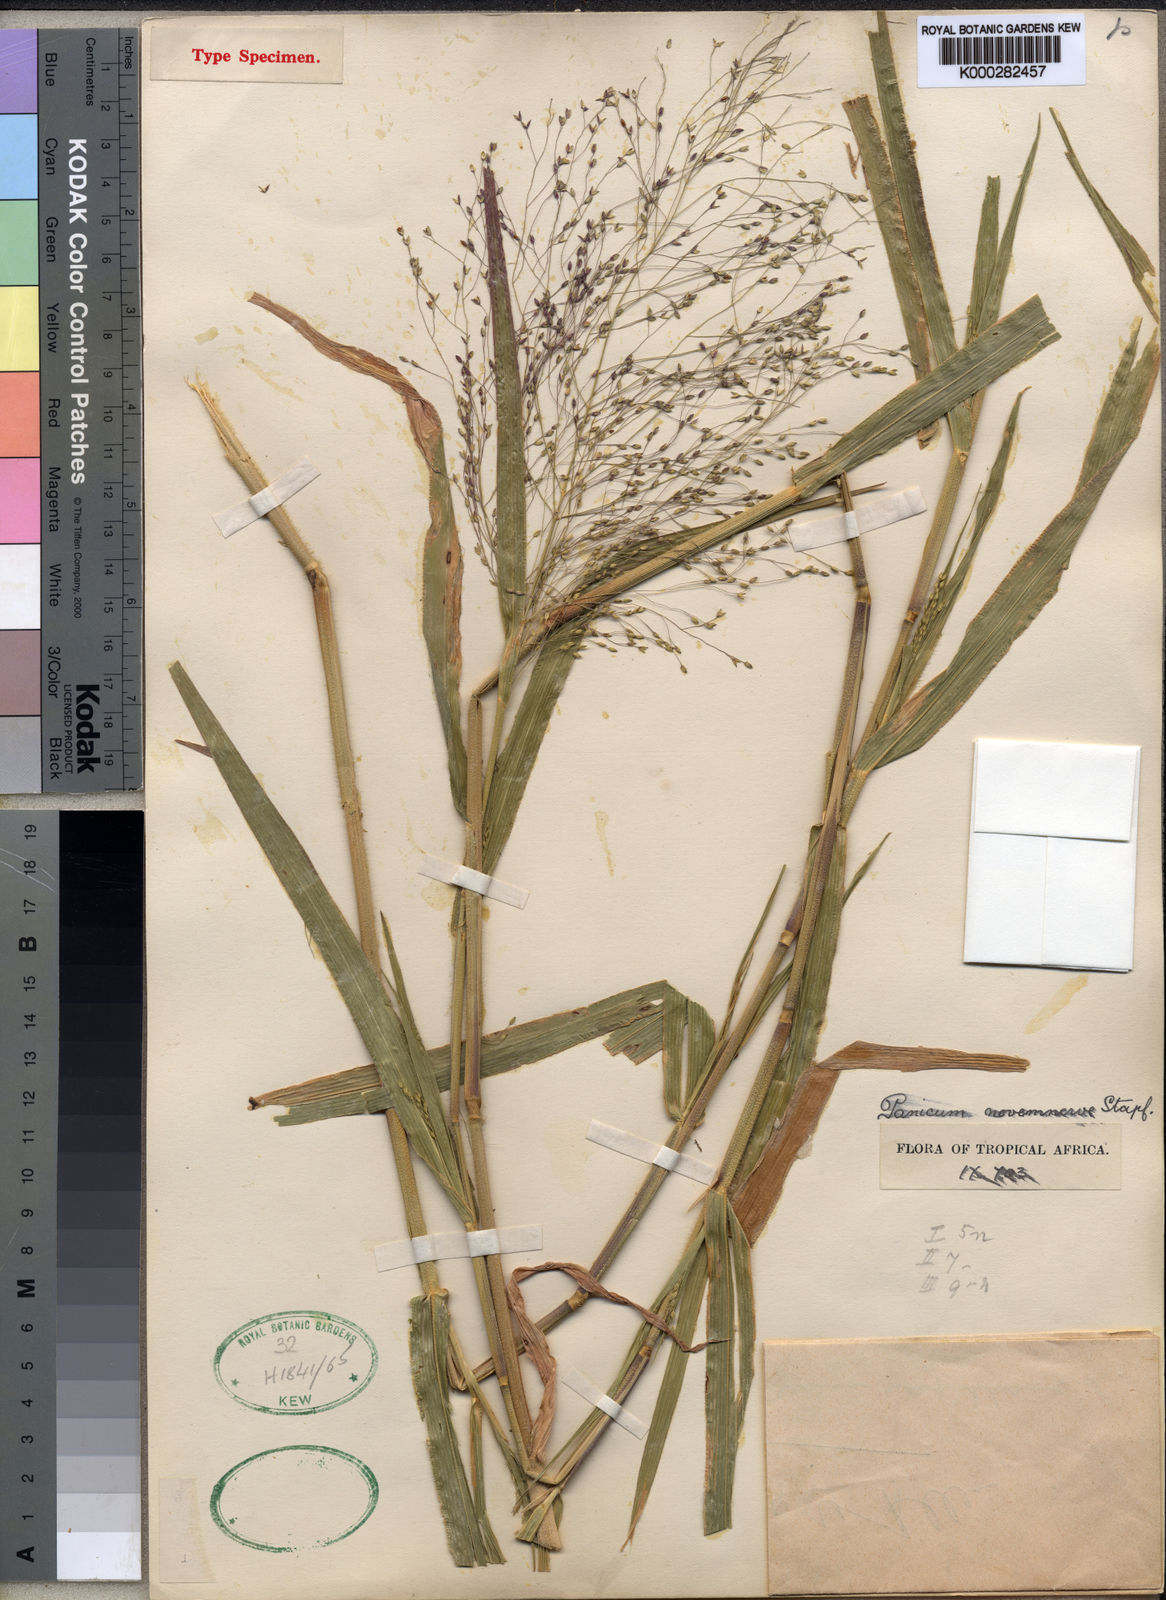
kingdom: Plantae
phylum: Tracheophyta
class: Liliopsida
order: Poales
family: Poaceae
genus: Panicum
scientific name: Panicum novemnerve
